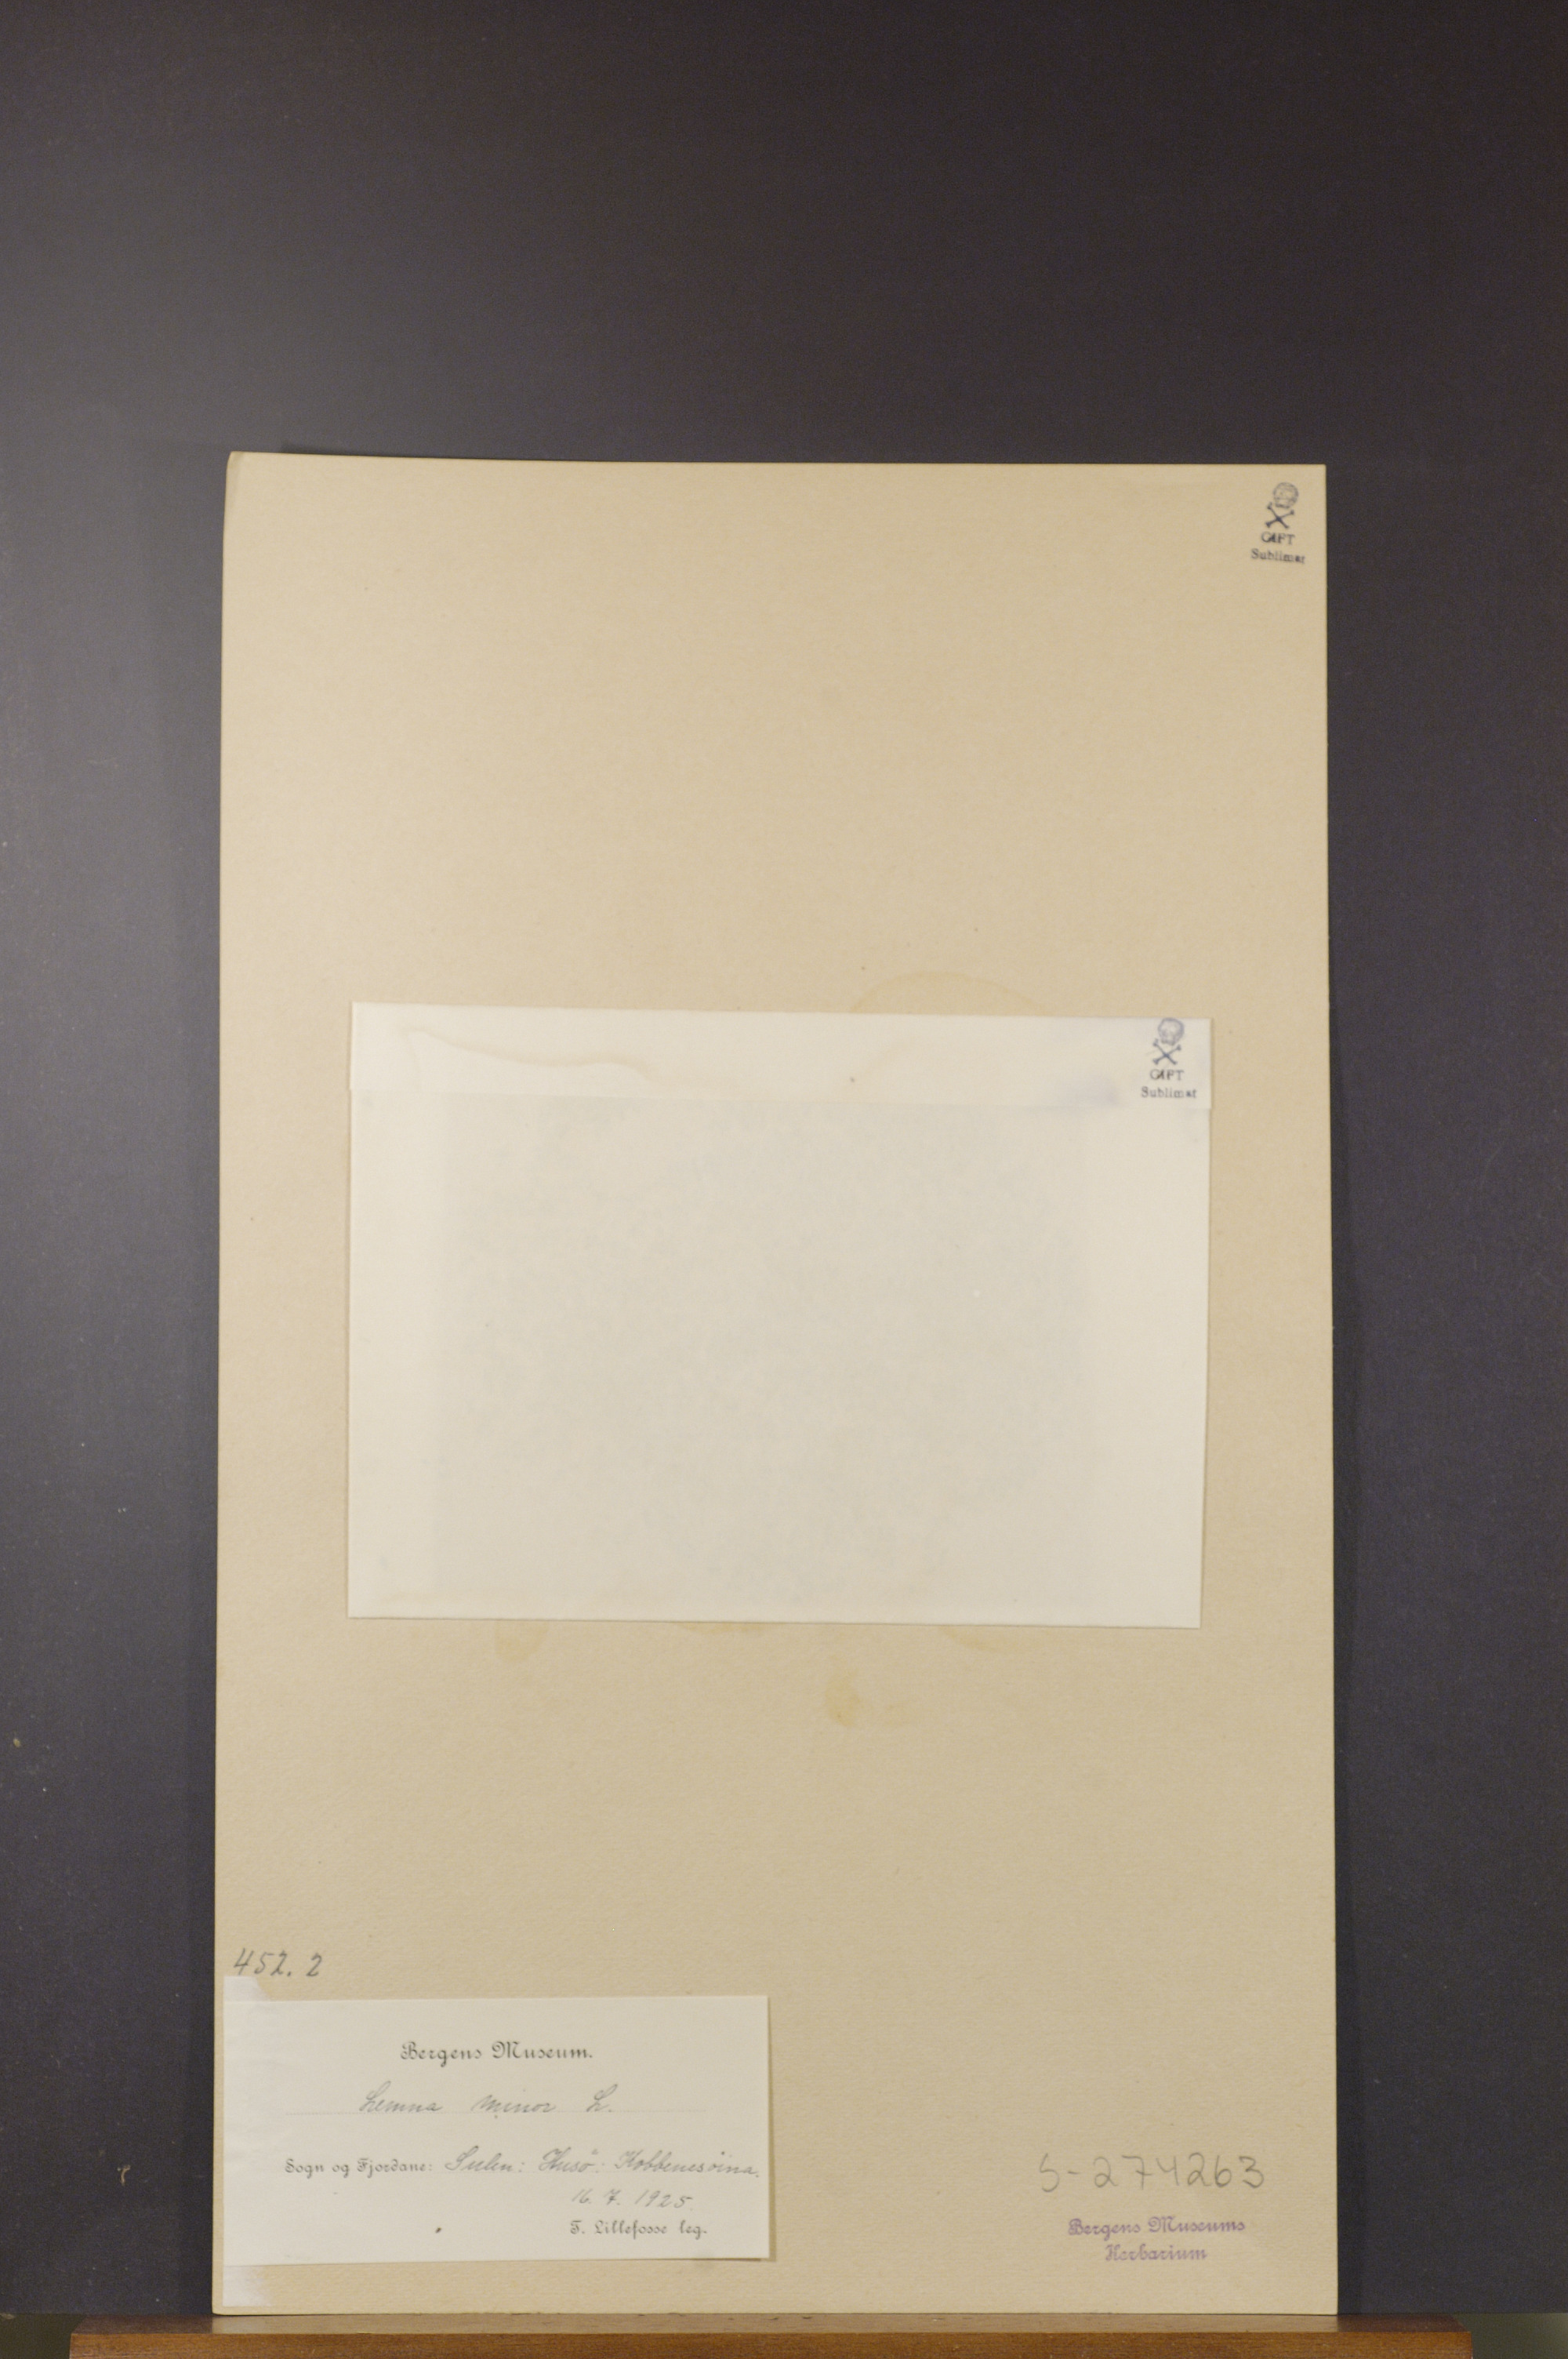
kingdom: Plantae
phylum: Tracheophyta
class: Liliopsida
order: Alismatales
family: Araceae
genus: Lemna
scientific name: Lemna minor
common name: Common duckweed
